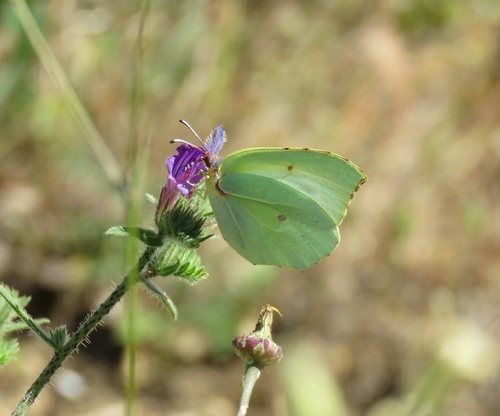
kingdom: Animalia
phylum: Arthropoda
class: Insecta
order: Lepidoptera
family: Pieridae
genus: Gonepteryx
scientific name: Gonepteryx cleopatra
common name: Cleopatra
